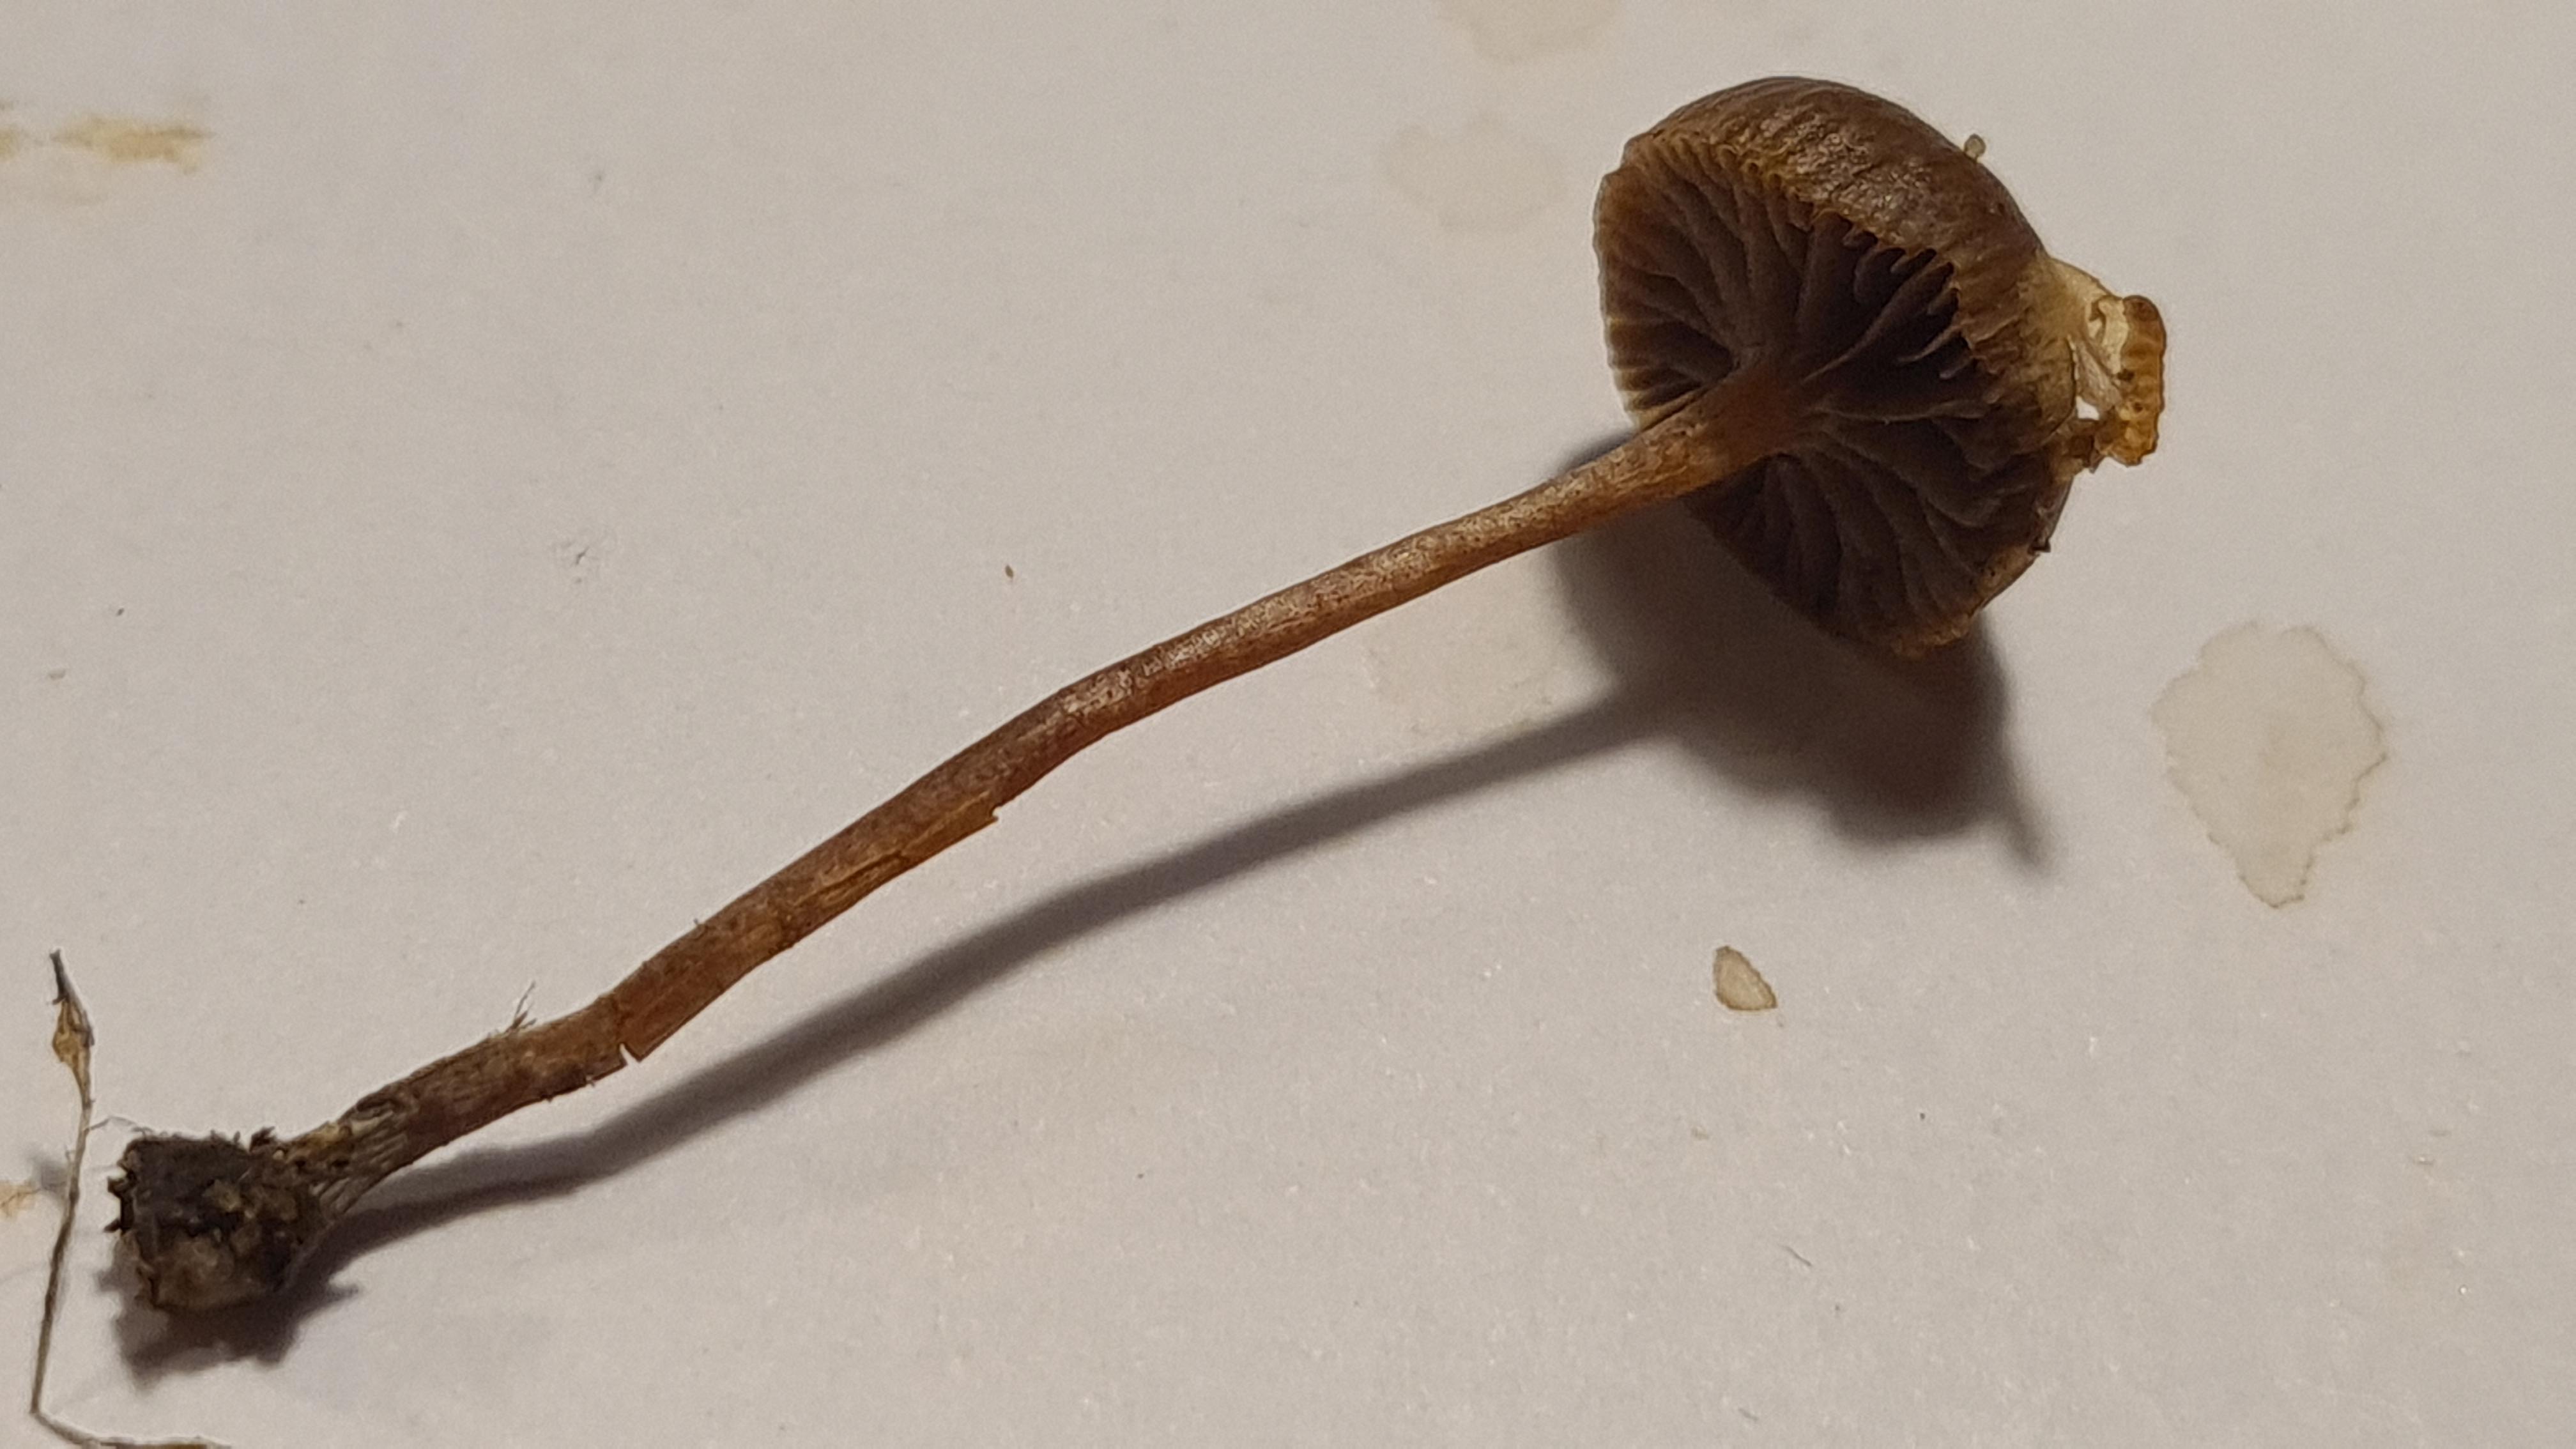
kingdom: Fungi
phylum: Basidiomycota
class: Agaricomycetes
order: Agaricales
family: Strophariaceae
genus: Deconica
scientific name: Deconica montana
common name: rødbrun stråhat
